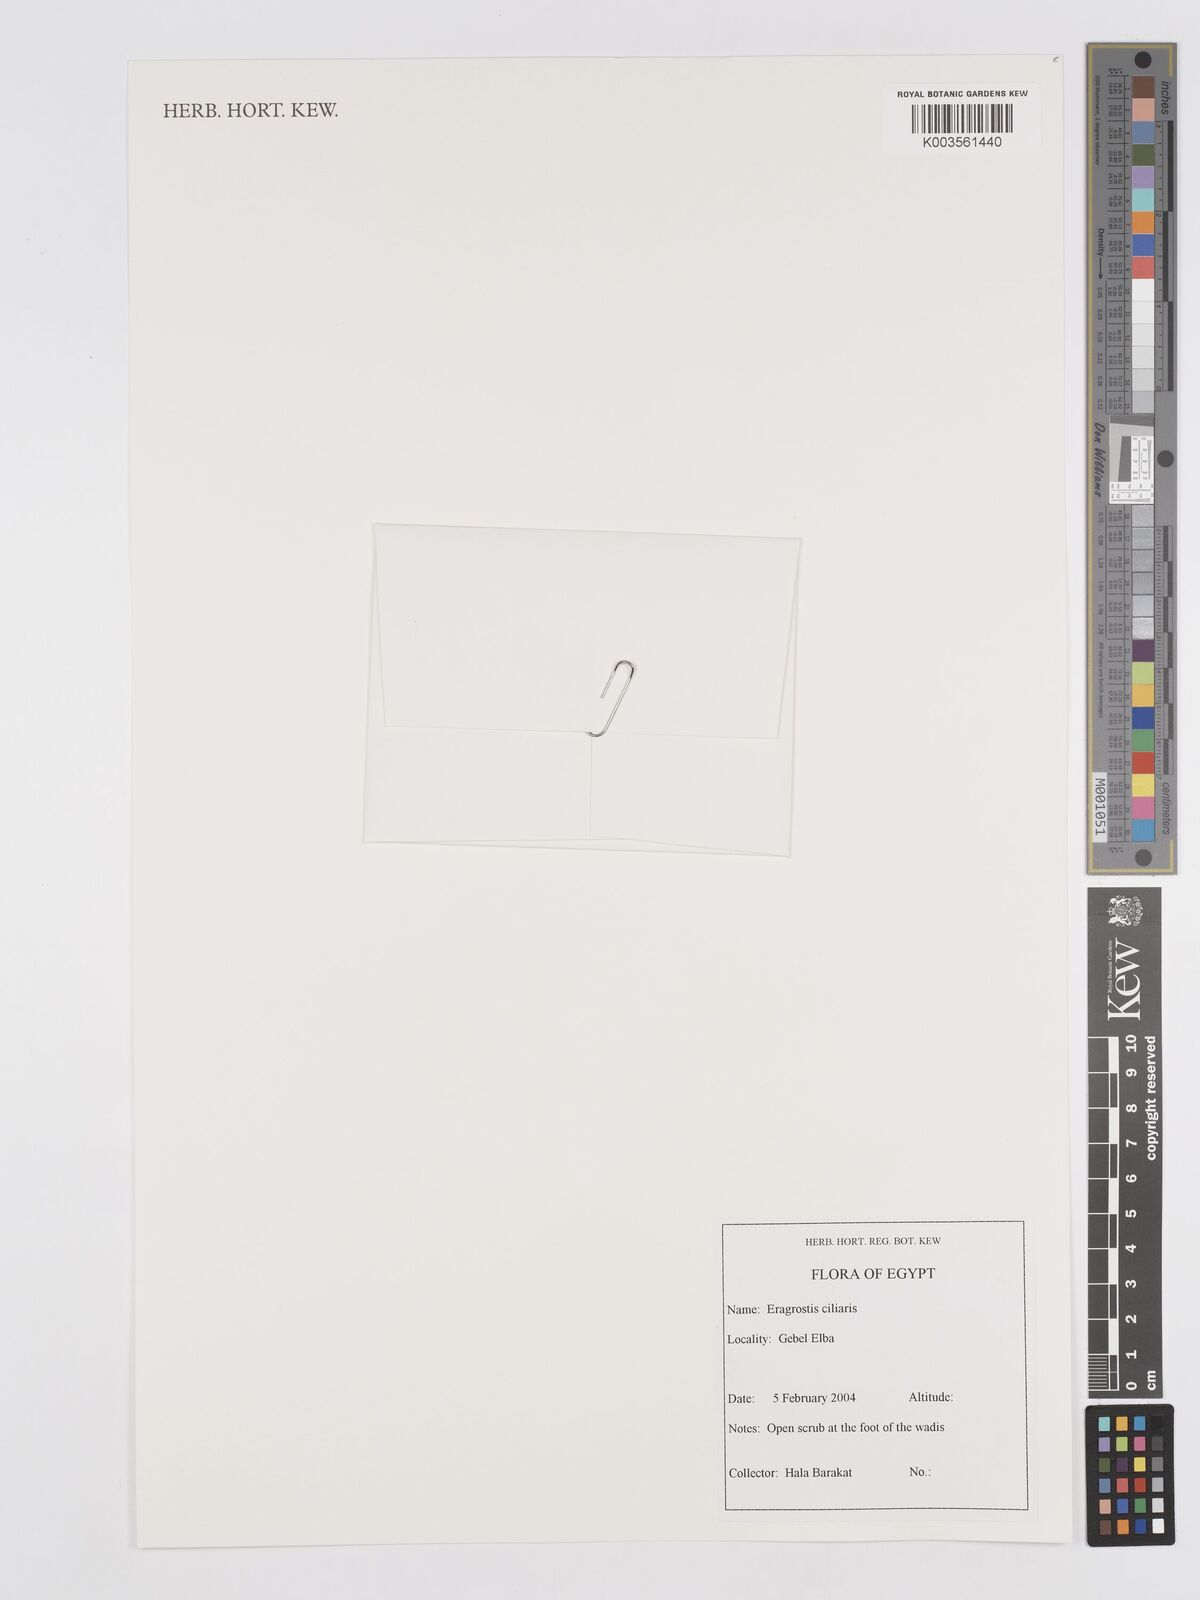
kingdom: Plantae
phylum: Tracheophyta
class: Liliopsida
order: Poales
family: Poaceae
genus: Eragrostis
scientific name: Eragrostis ciliaris
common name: Gophertail lovegrass
